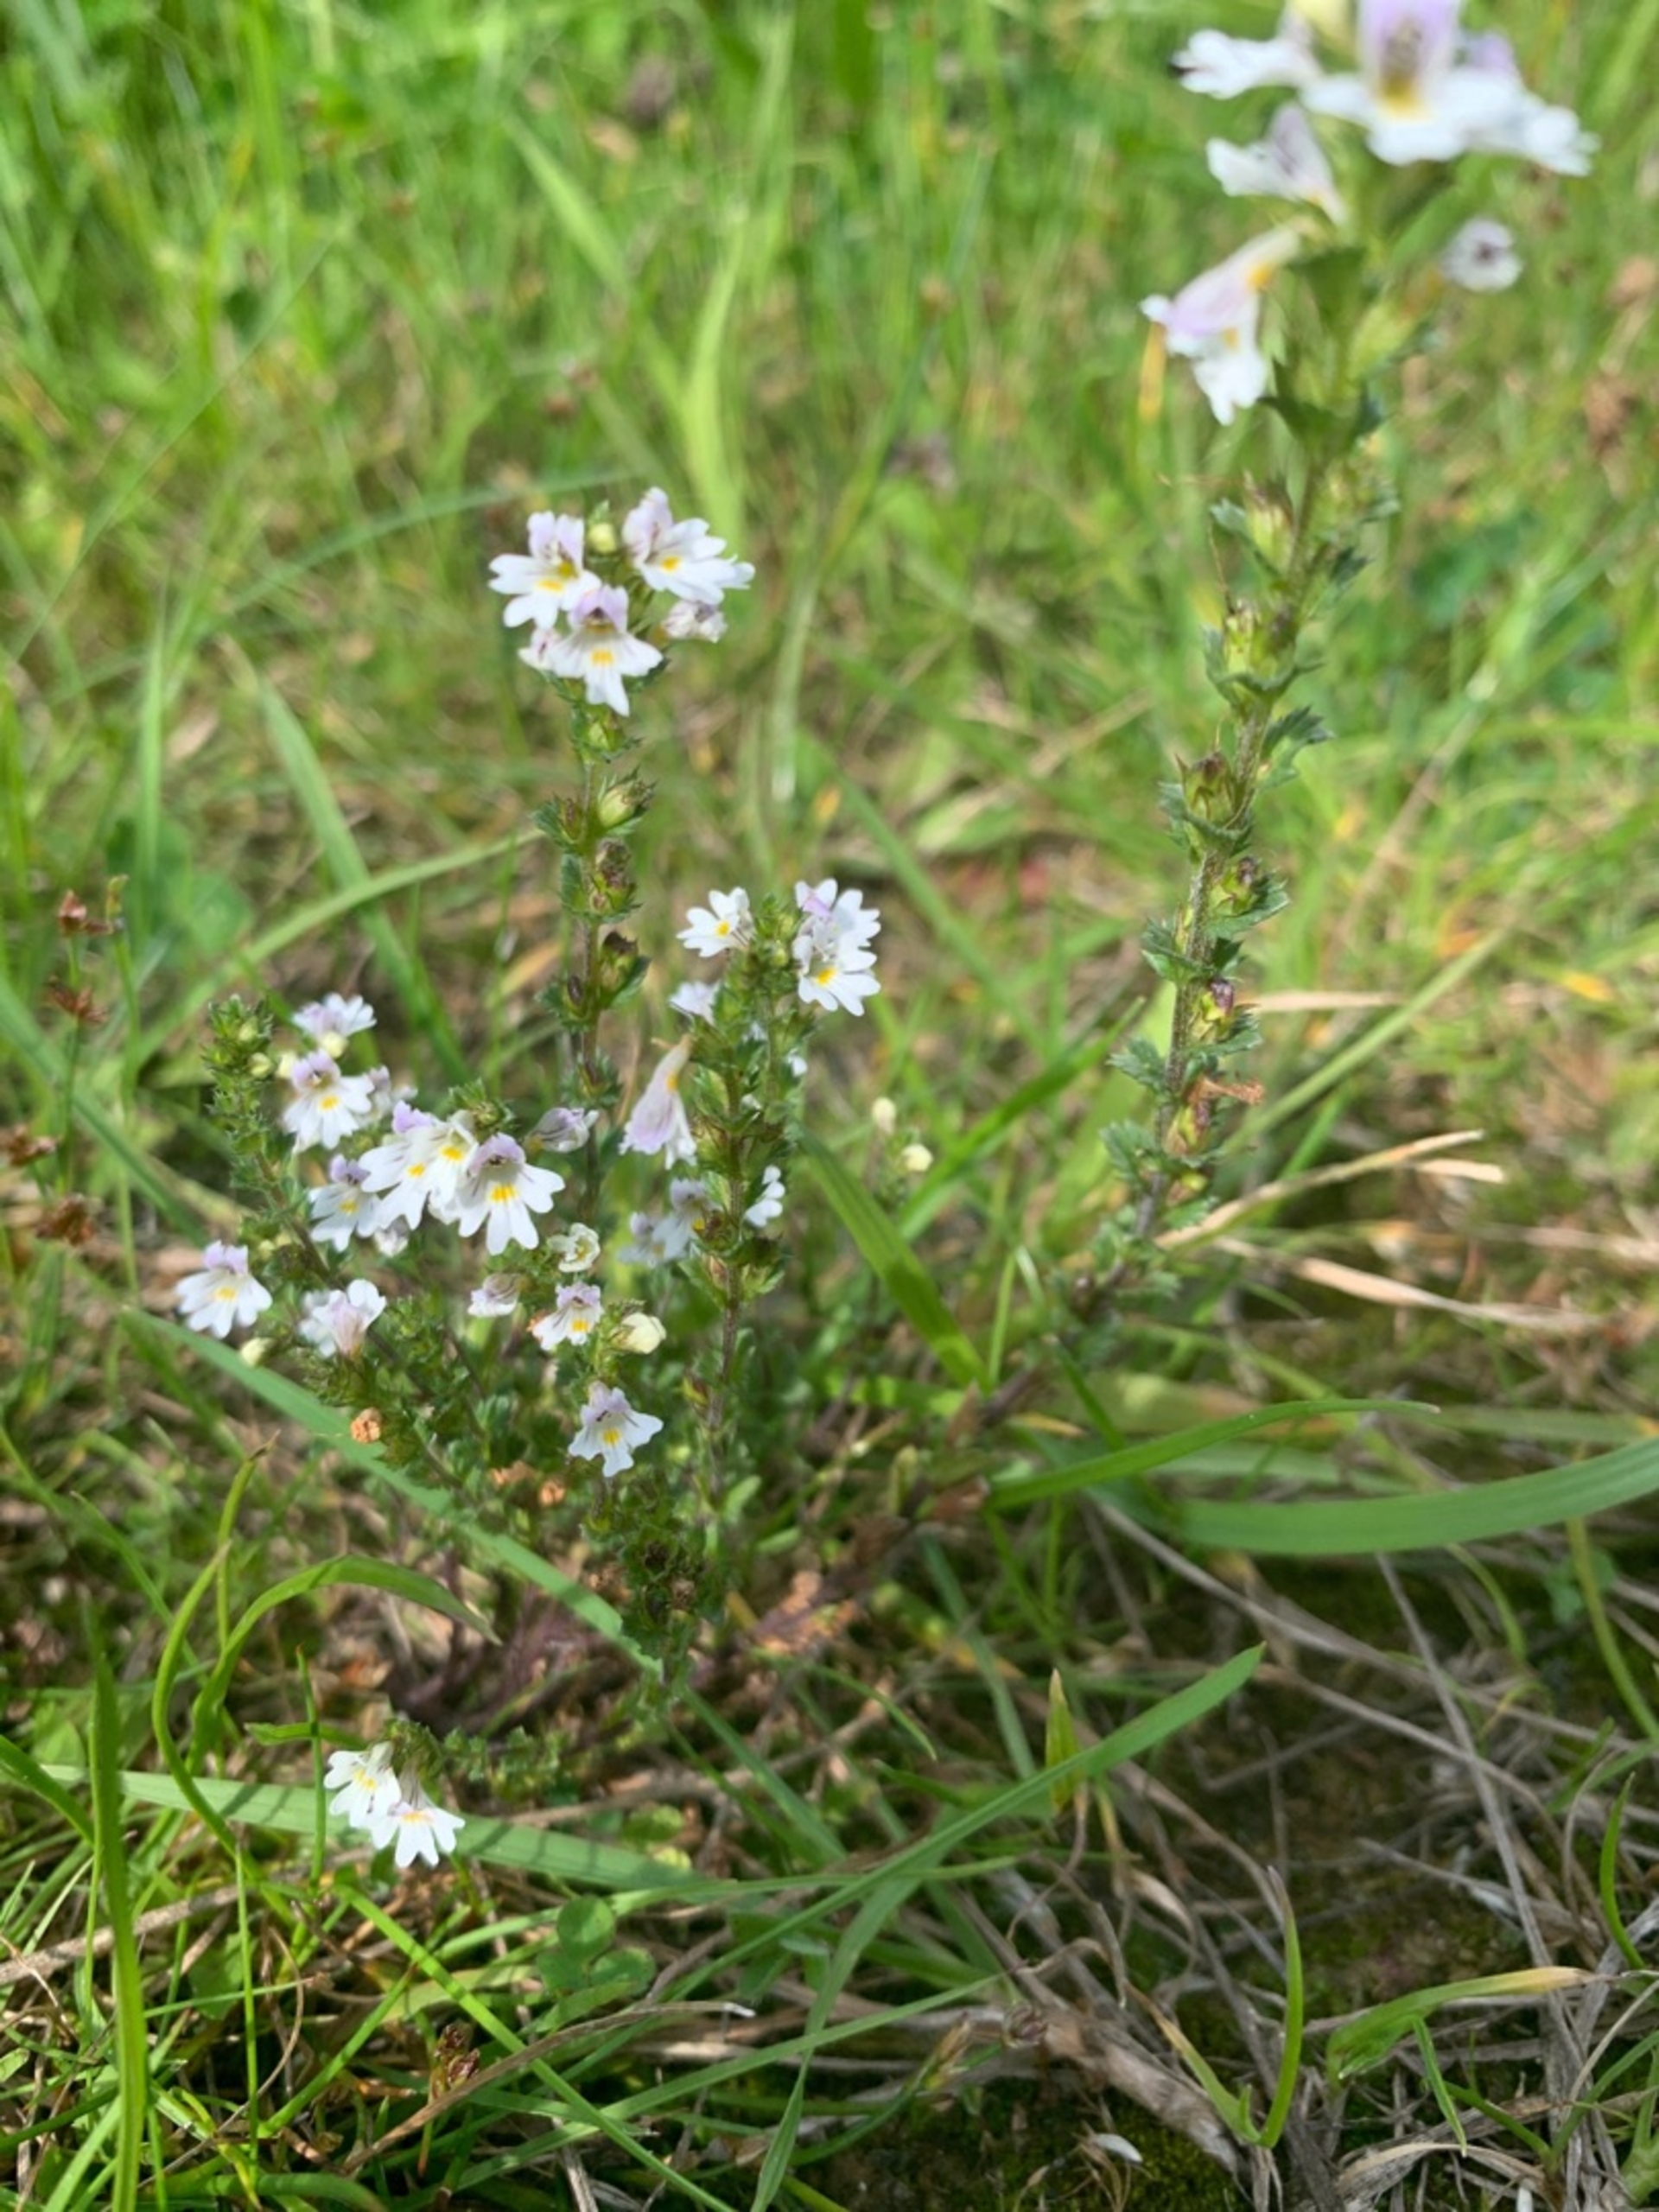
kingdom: Plantae
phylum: Tracheophyta
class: Magnoliopsida
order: Lamiales
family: Orobanchaceae
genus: Euphrasia
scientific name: Euphrasia nemorosa
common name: Kort øjentrøst
